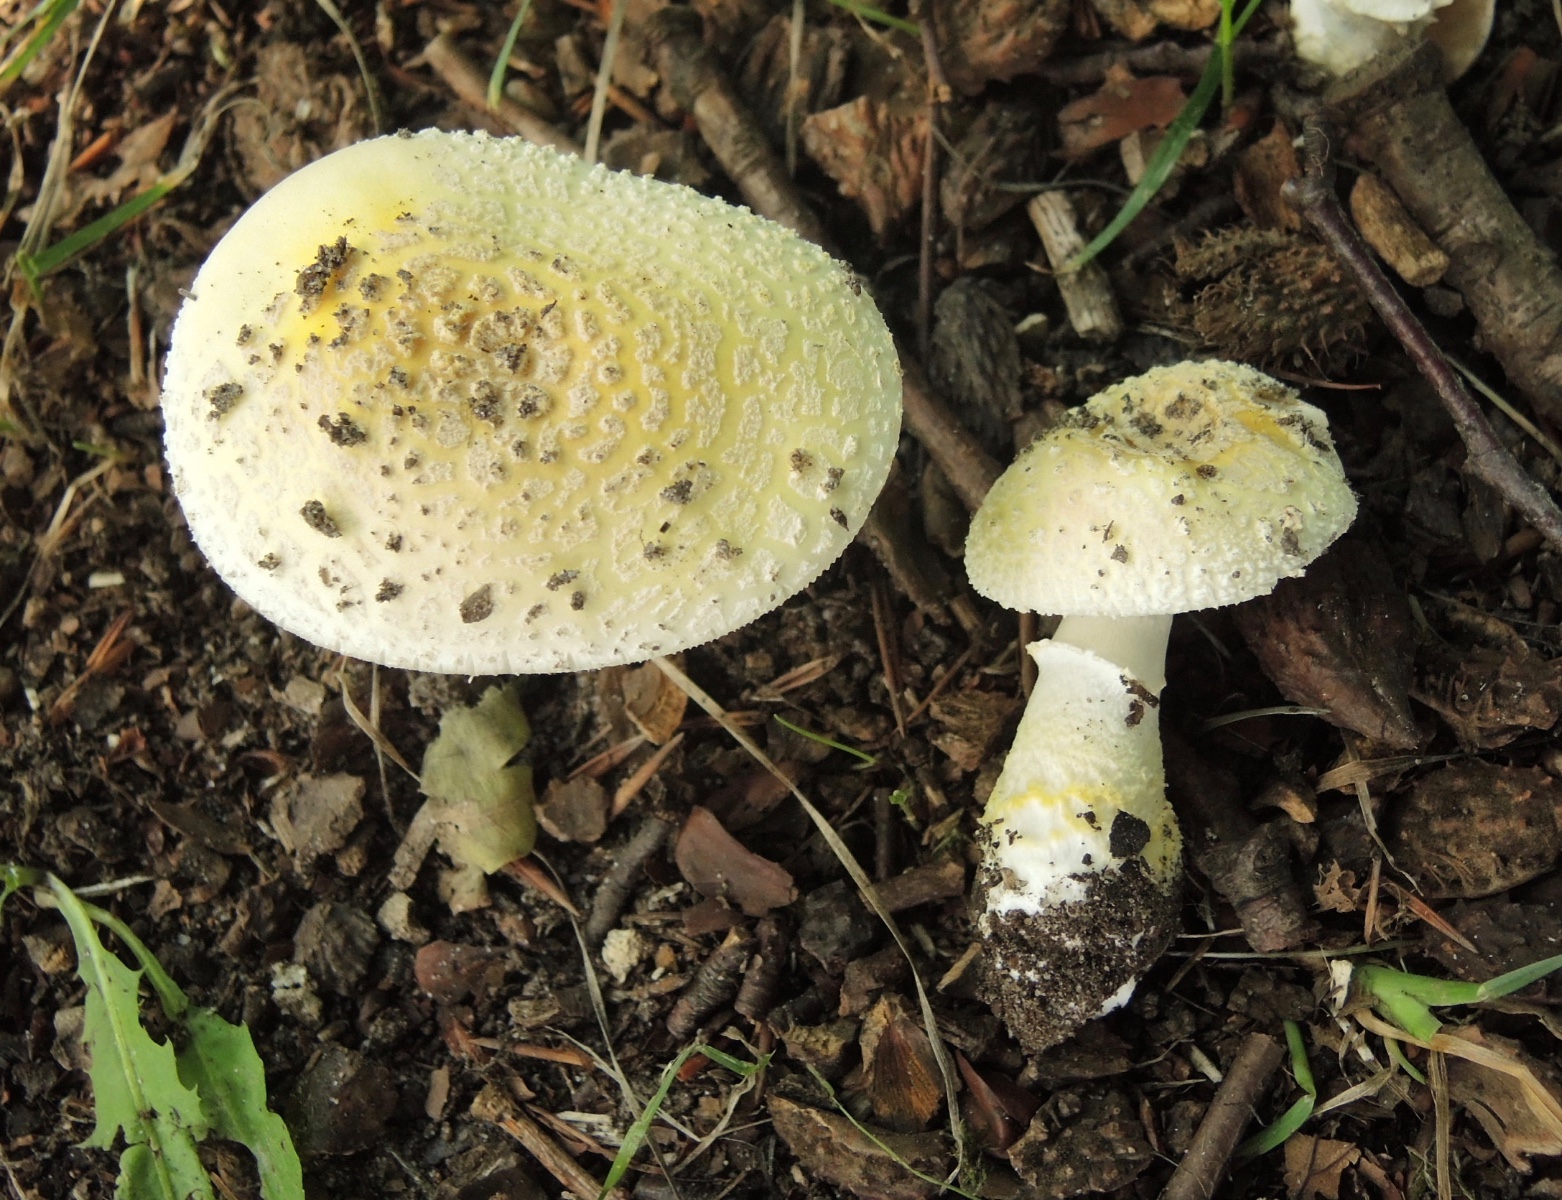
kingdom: Fungi
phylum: Basidiomycota
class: Agaricomycetes
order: Agaricales
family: Amanitaceae
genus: Amanita
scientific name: Amanita franchetii
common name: gulrandet fluesvamp
